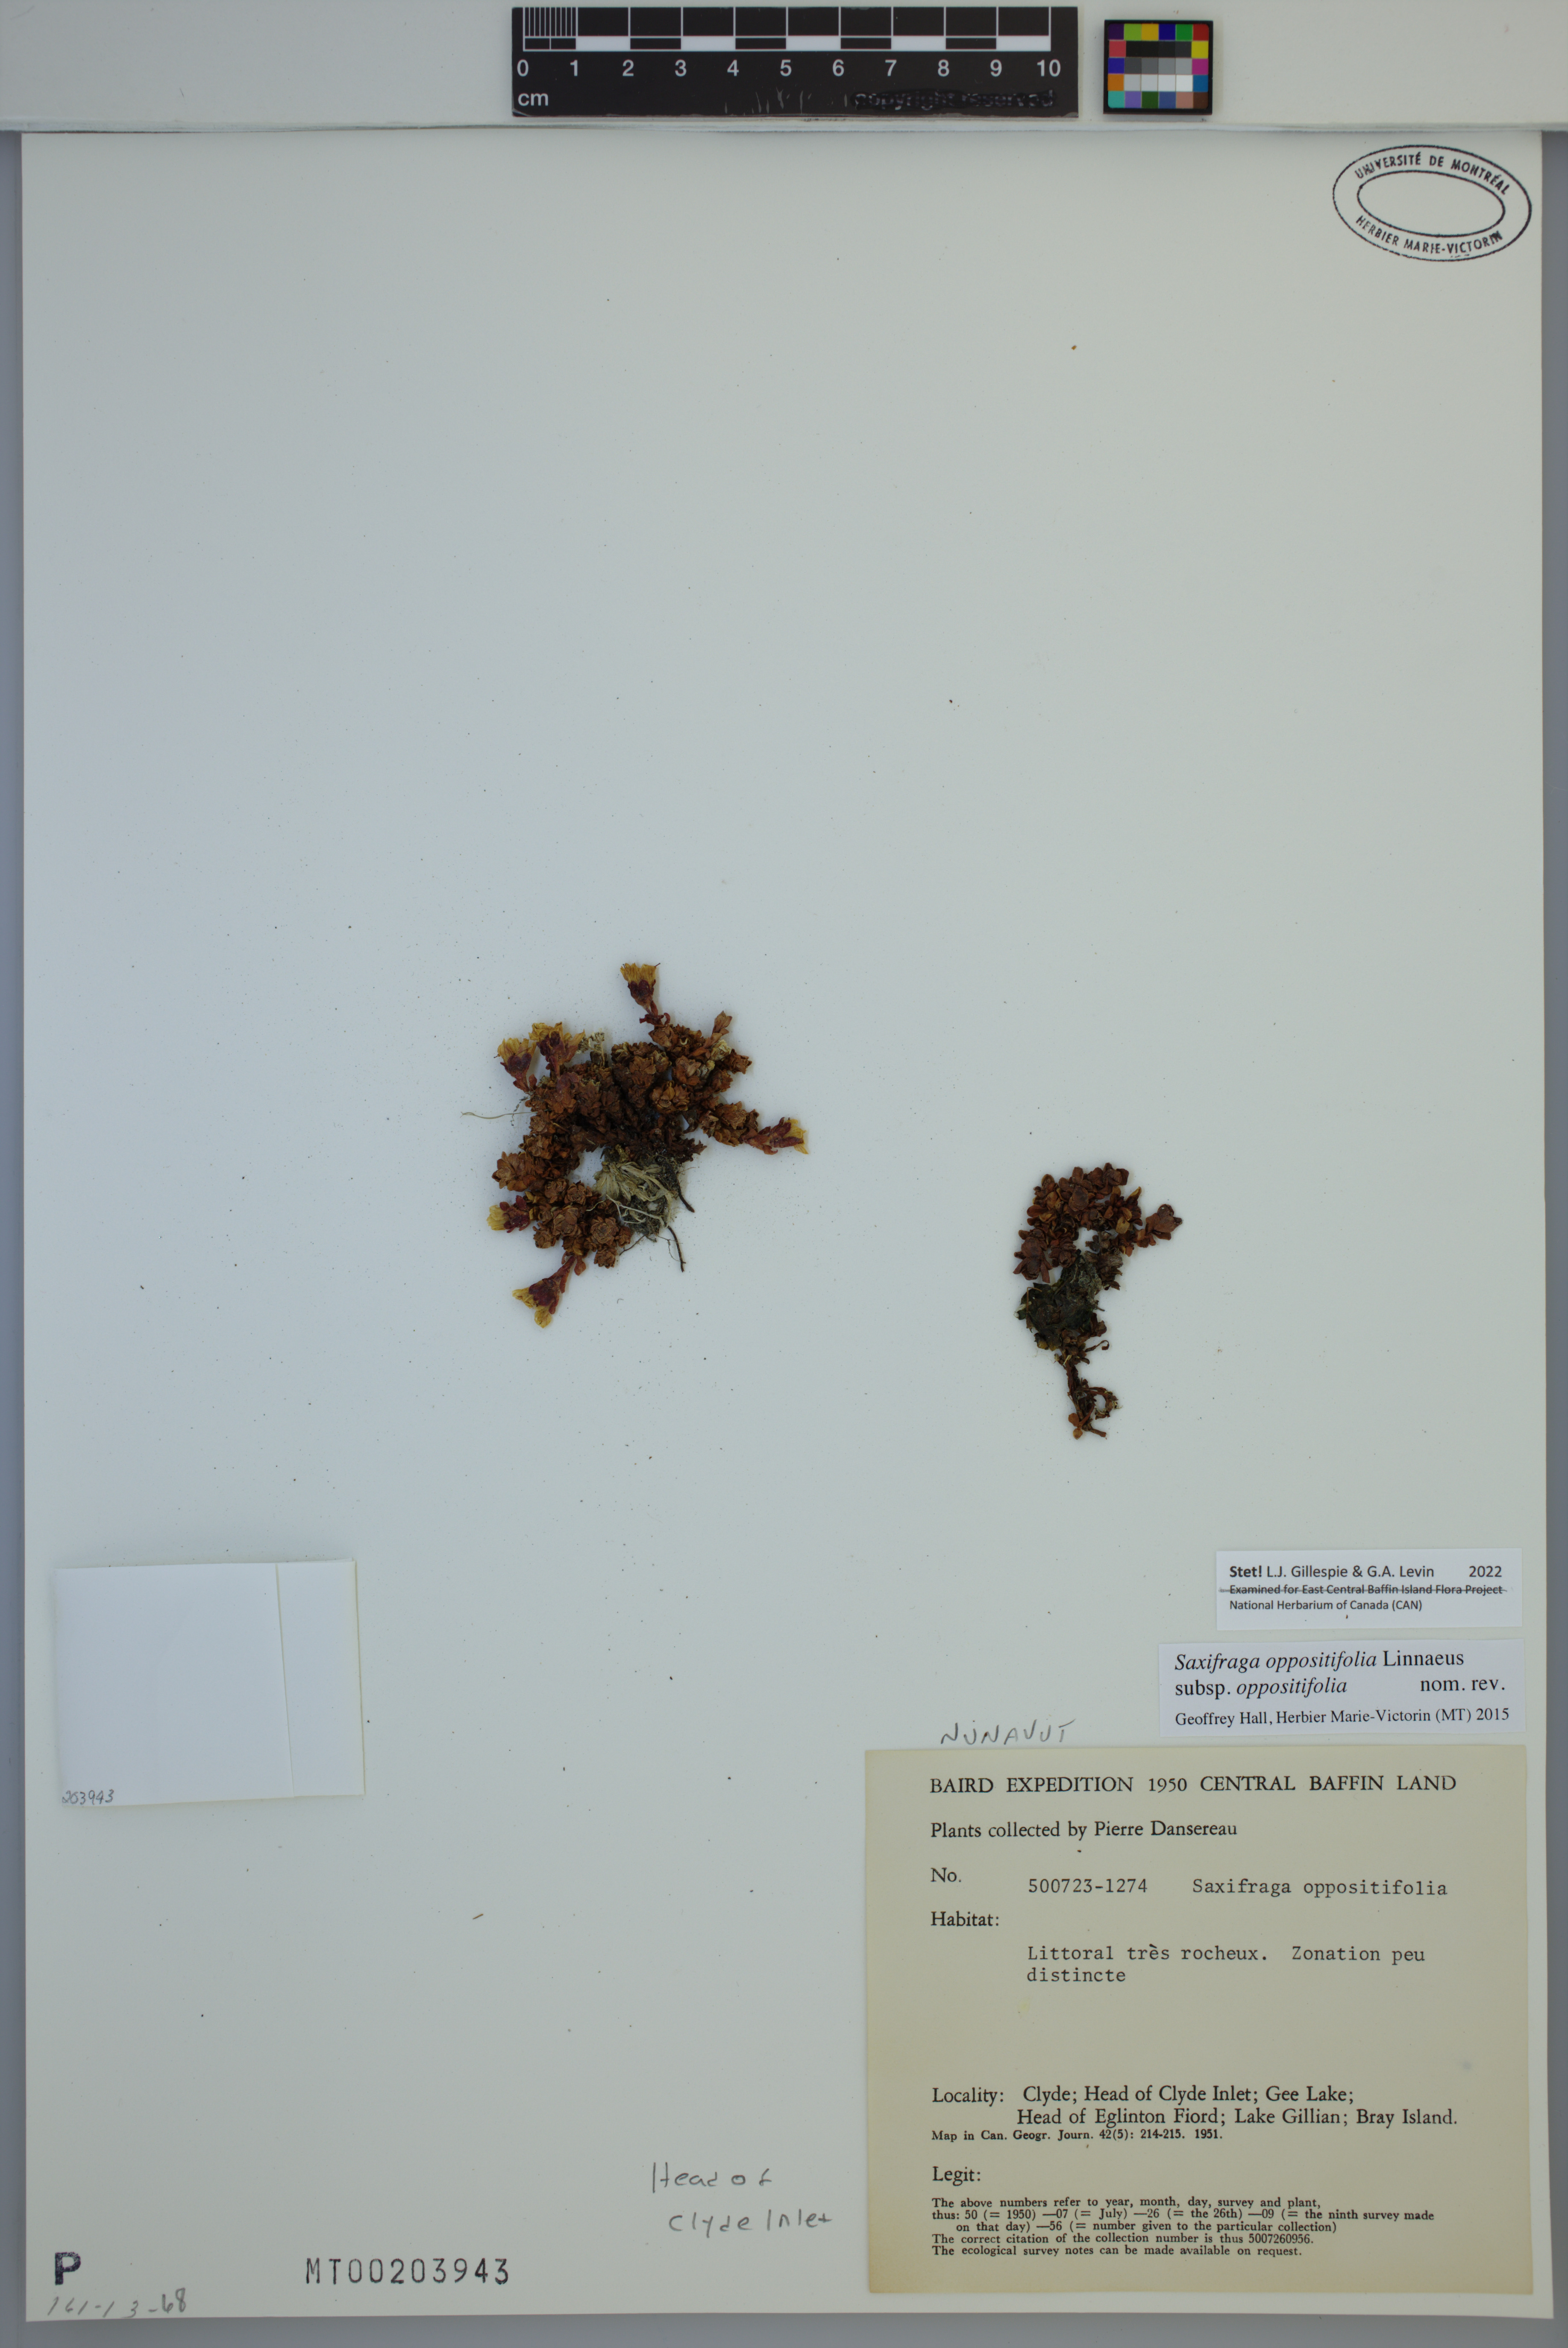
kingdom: Plantae
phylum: Tracheophyta
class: Magnoliopsida
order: Saxifragales
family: Saxifragaceae
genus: Saxifraga
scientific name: Saxifraga oppositifolia
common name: Purple saxifrage
